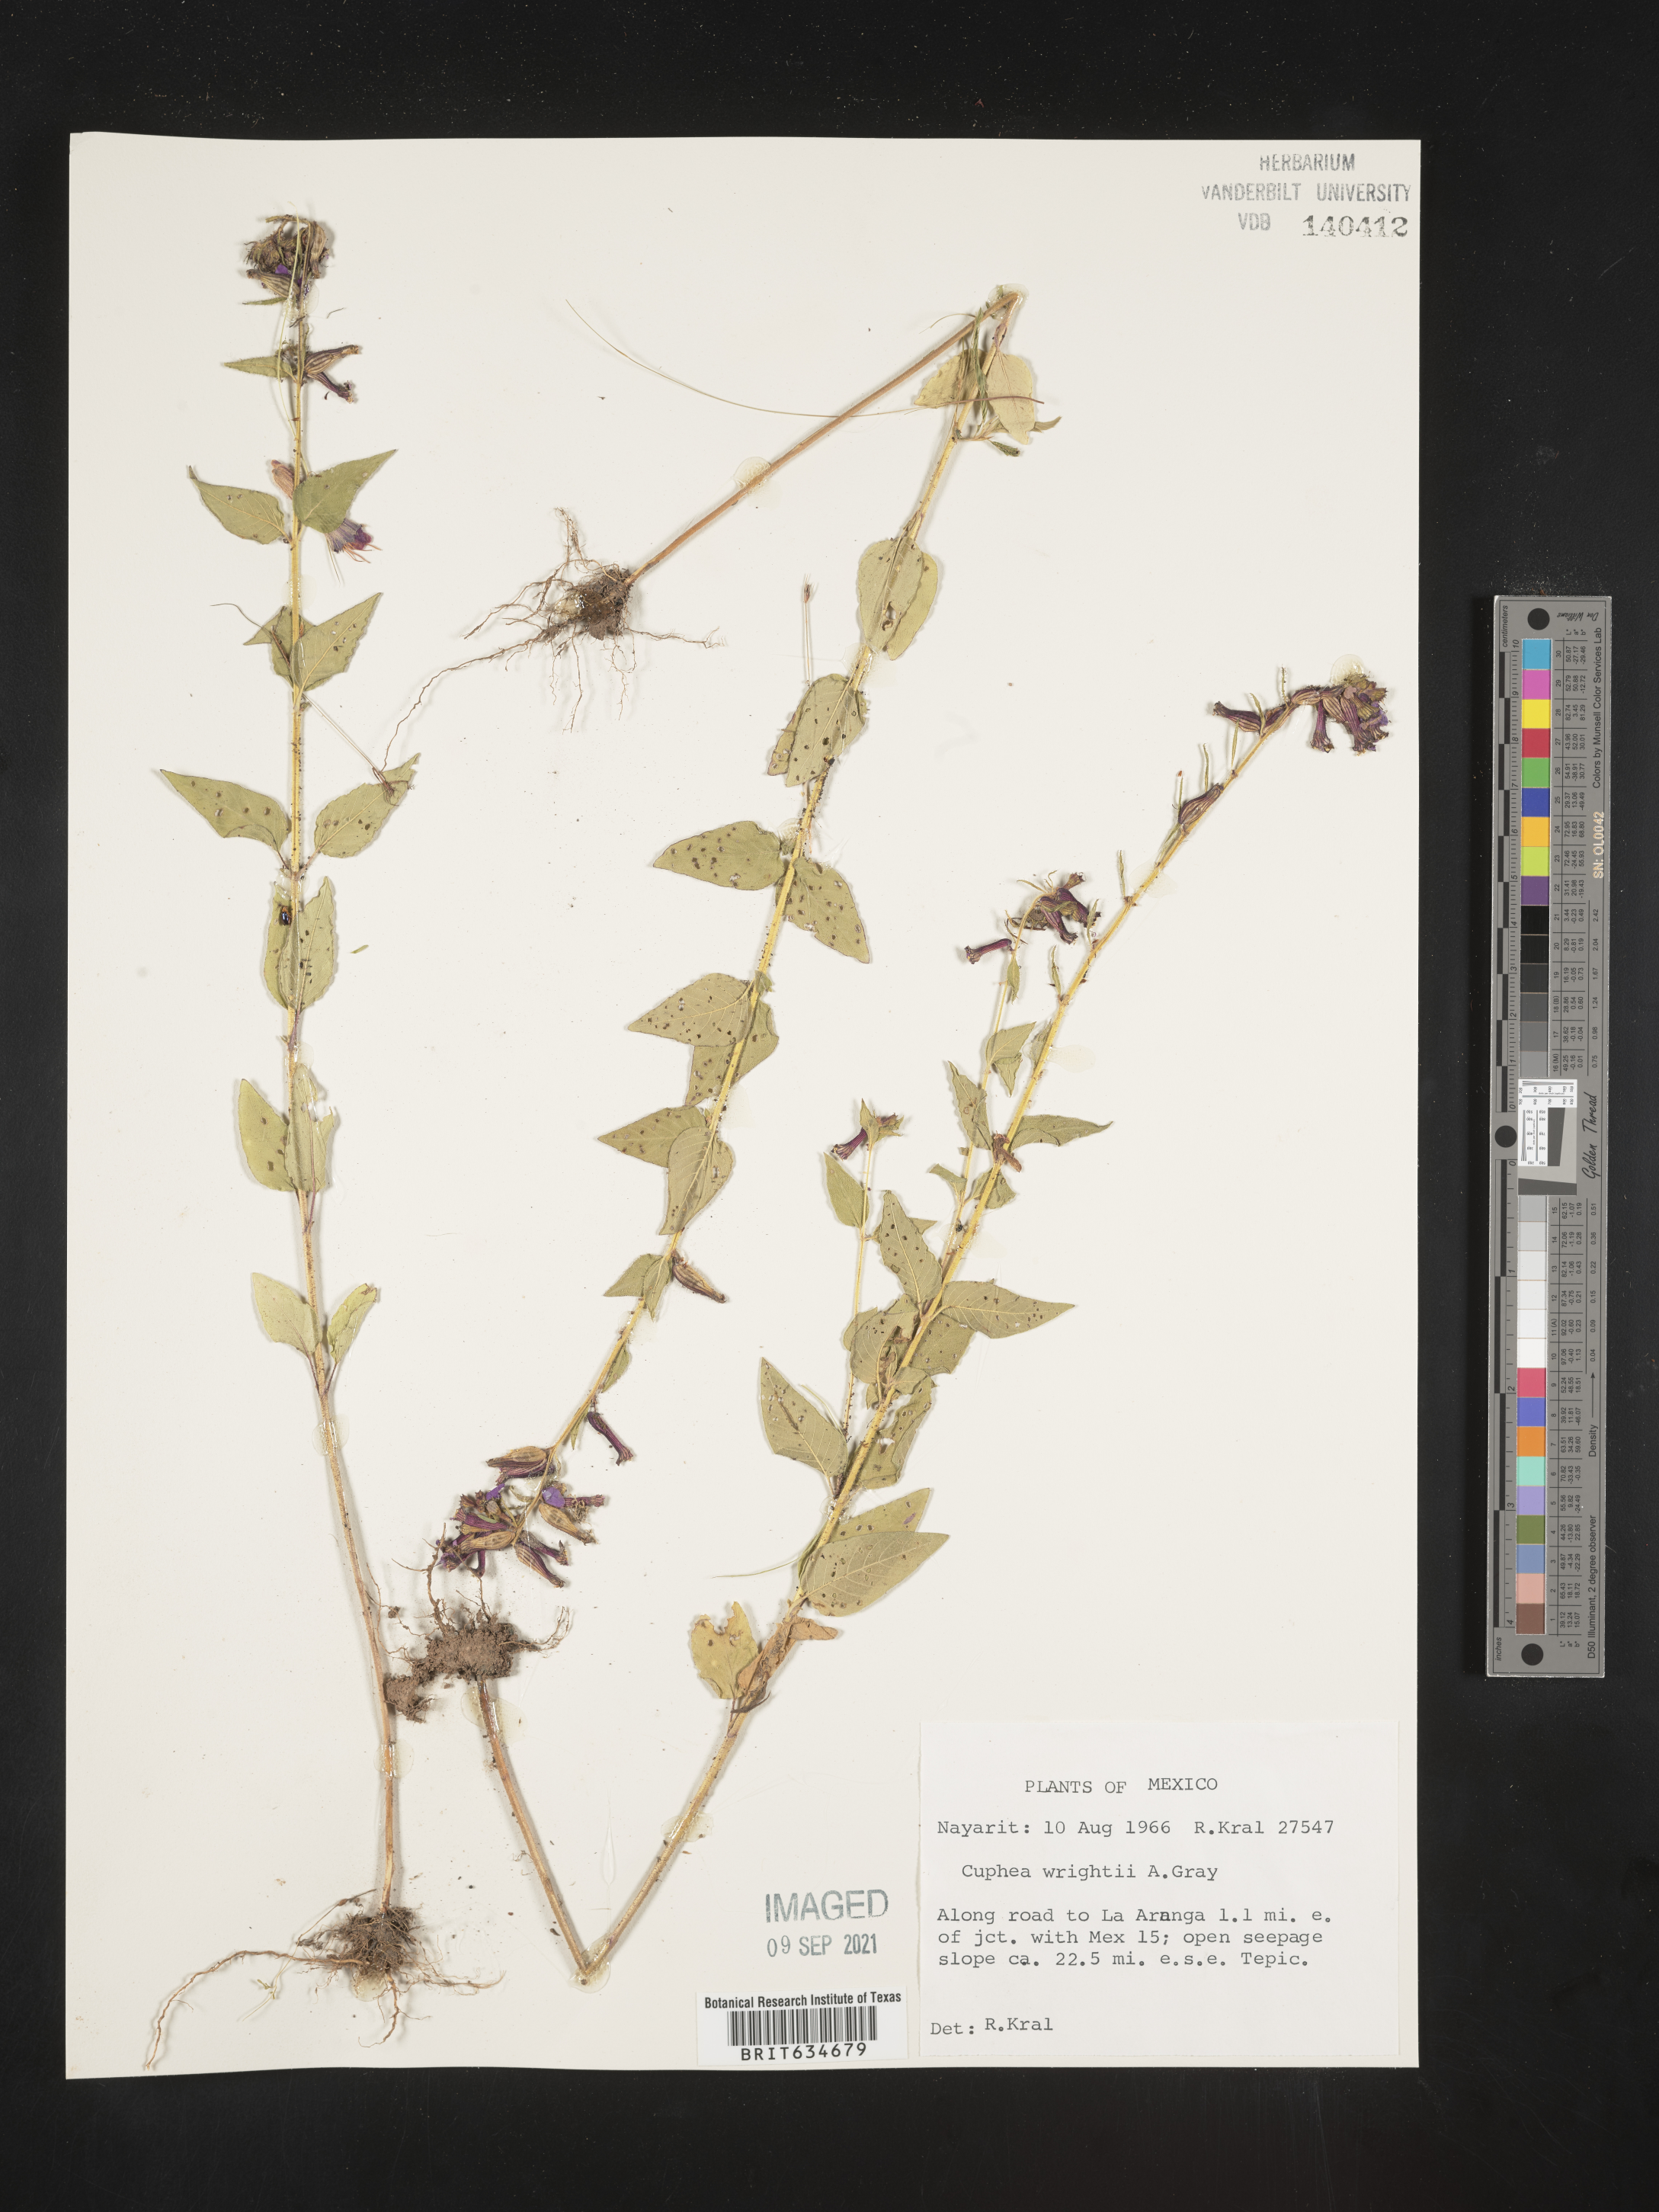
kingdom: Plantae
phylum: Tracheophyta
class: Magnoliopsida
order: Myrtales
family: Lythraceae
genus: Cuphea
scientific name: Cuphea
